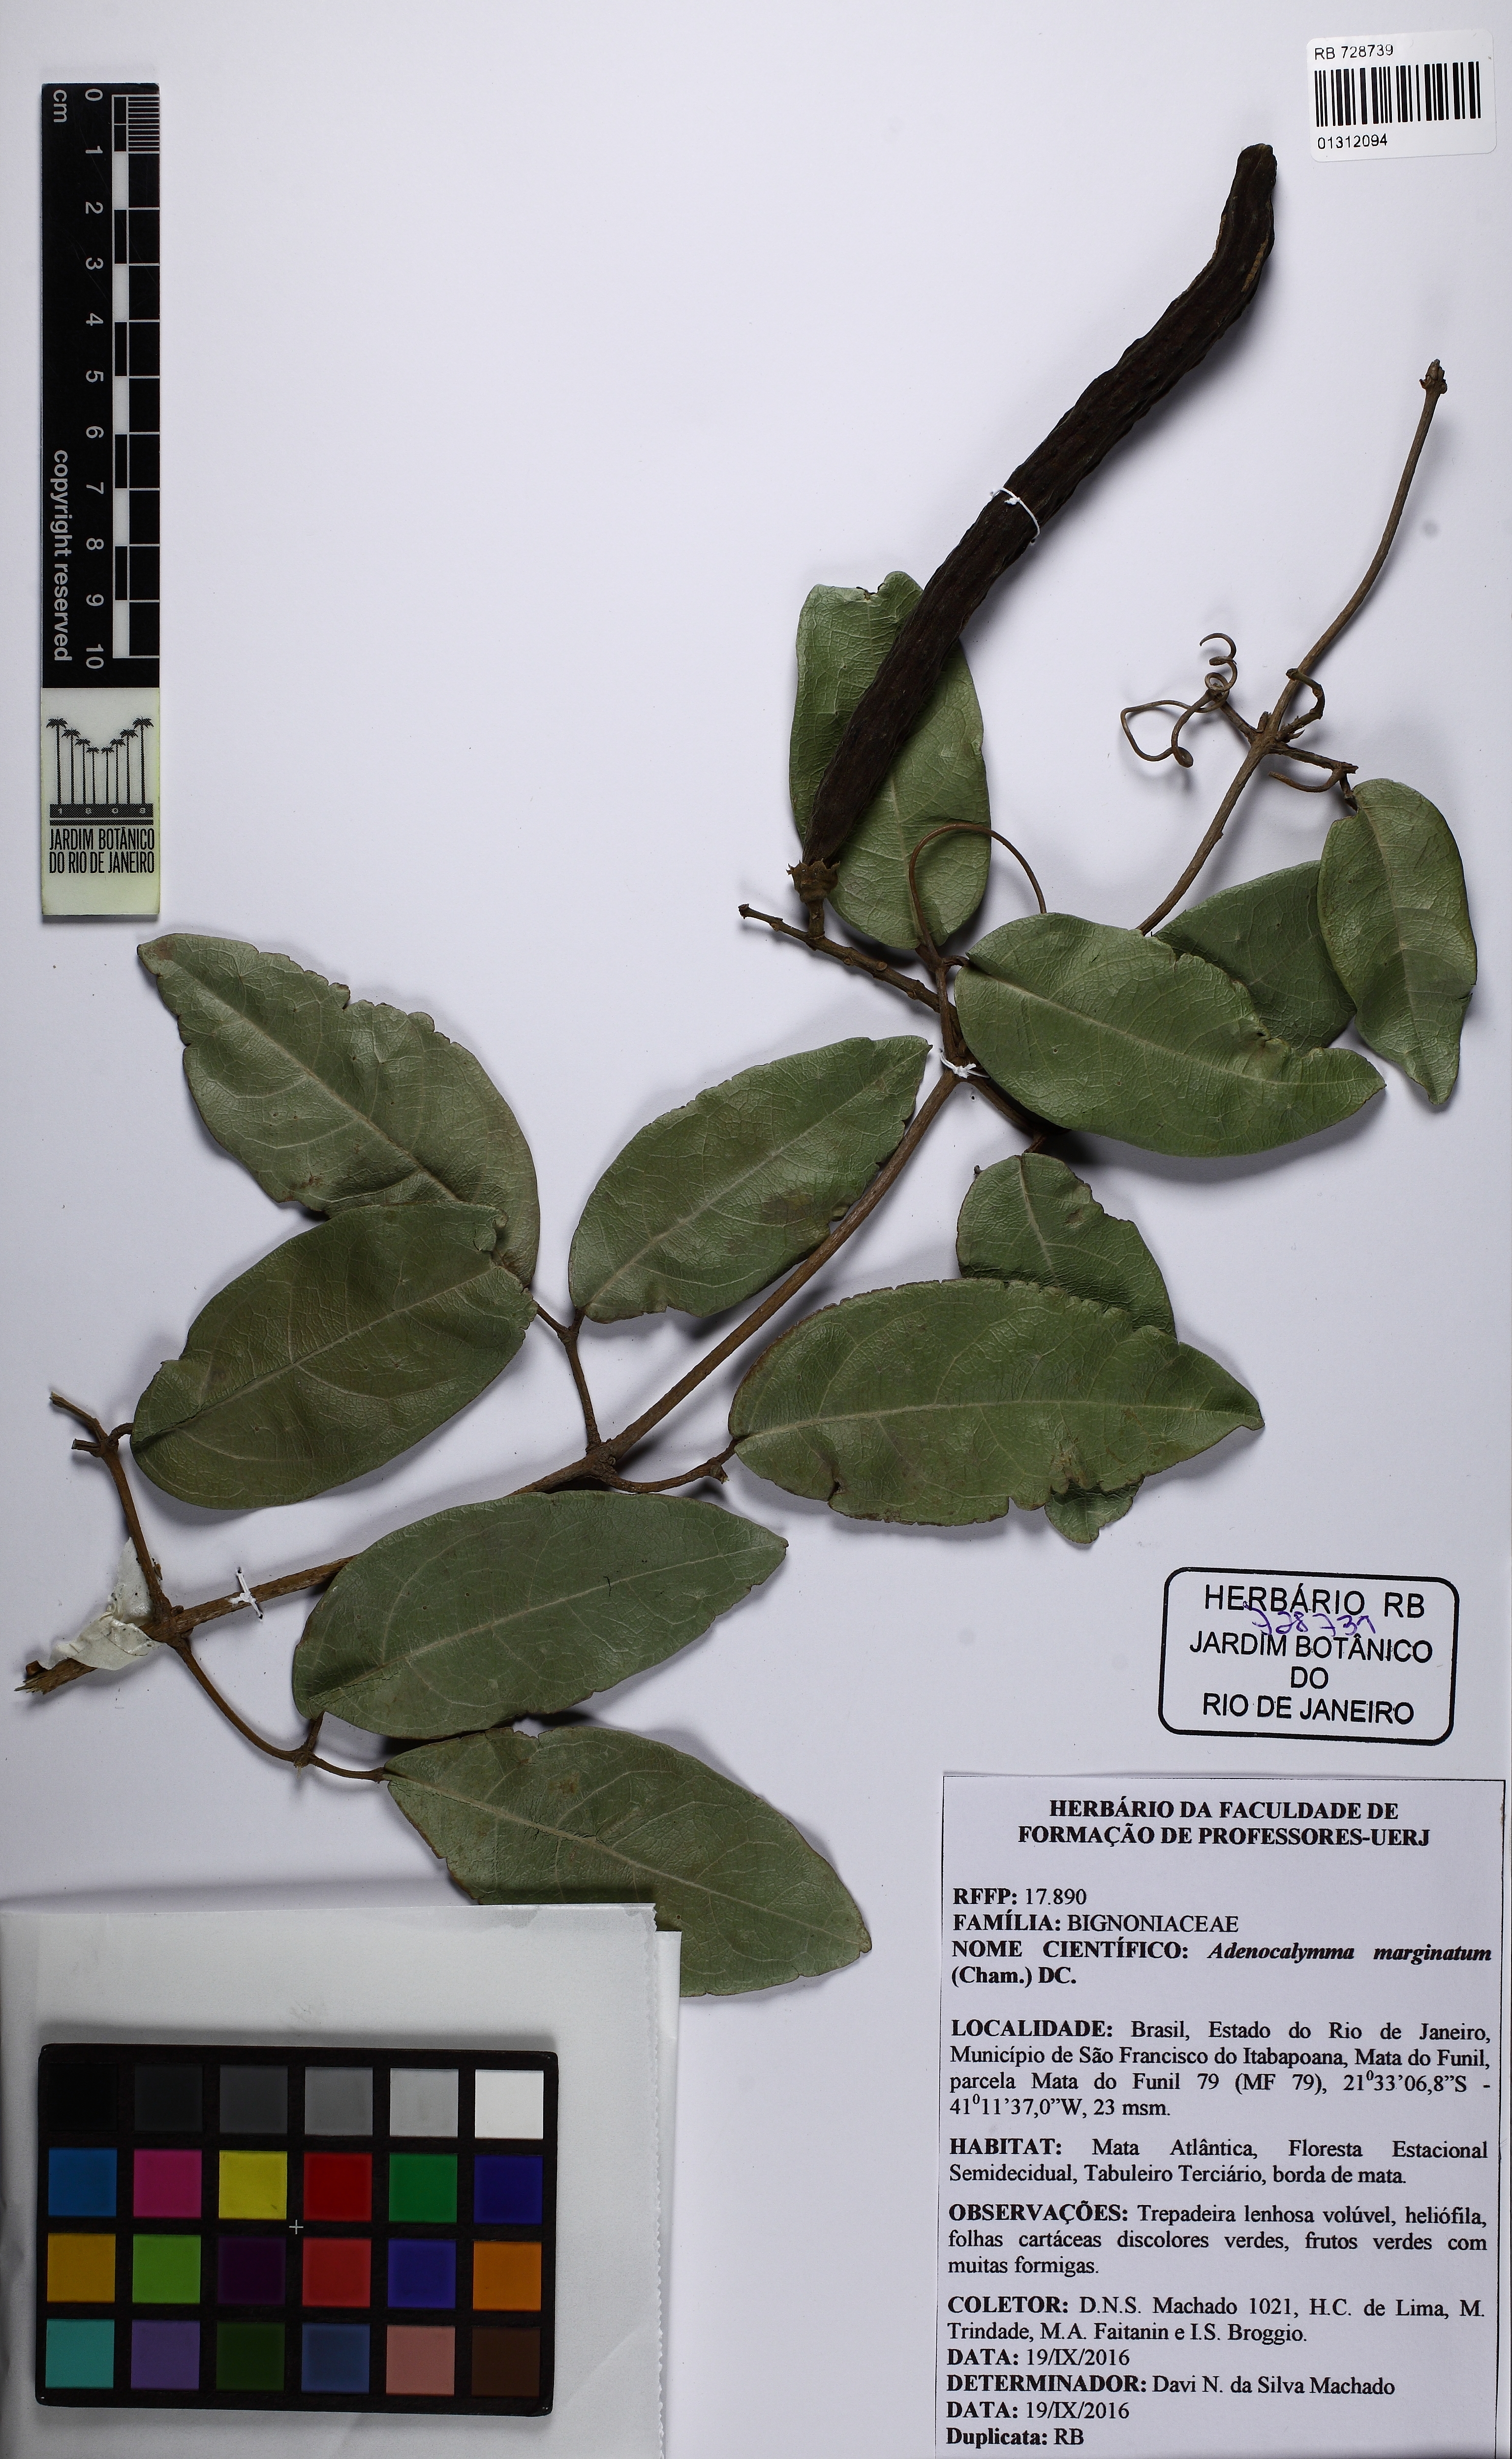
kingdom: Plantae
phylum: Tracheophyta
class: Magnoliopsida
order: Lamiales
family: Bignoniaceae
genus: Adenocalymma
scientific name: Adenocalymma marginatum
